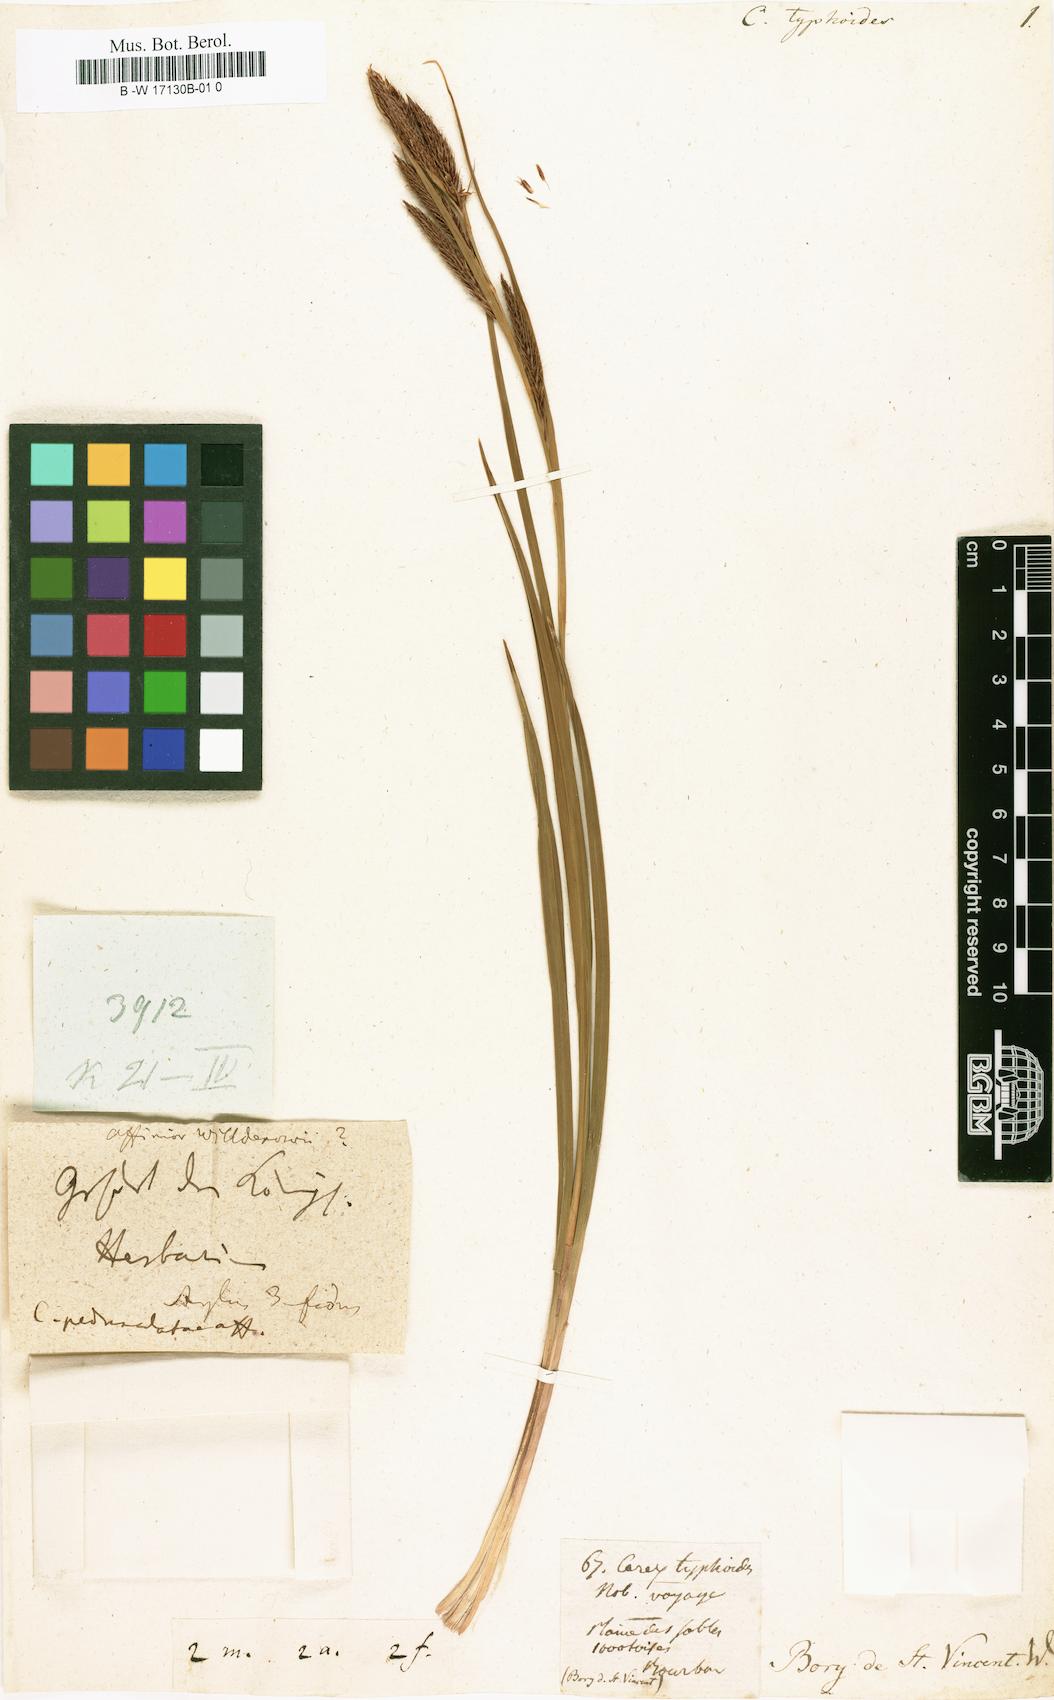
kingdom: Plantae
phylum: Tracheophyta
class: Liliopsida
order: Poales
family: Cyperaceae
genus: Carex
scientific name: Carex borbonica
